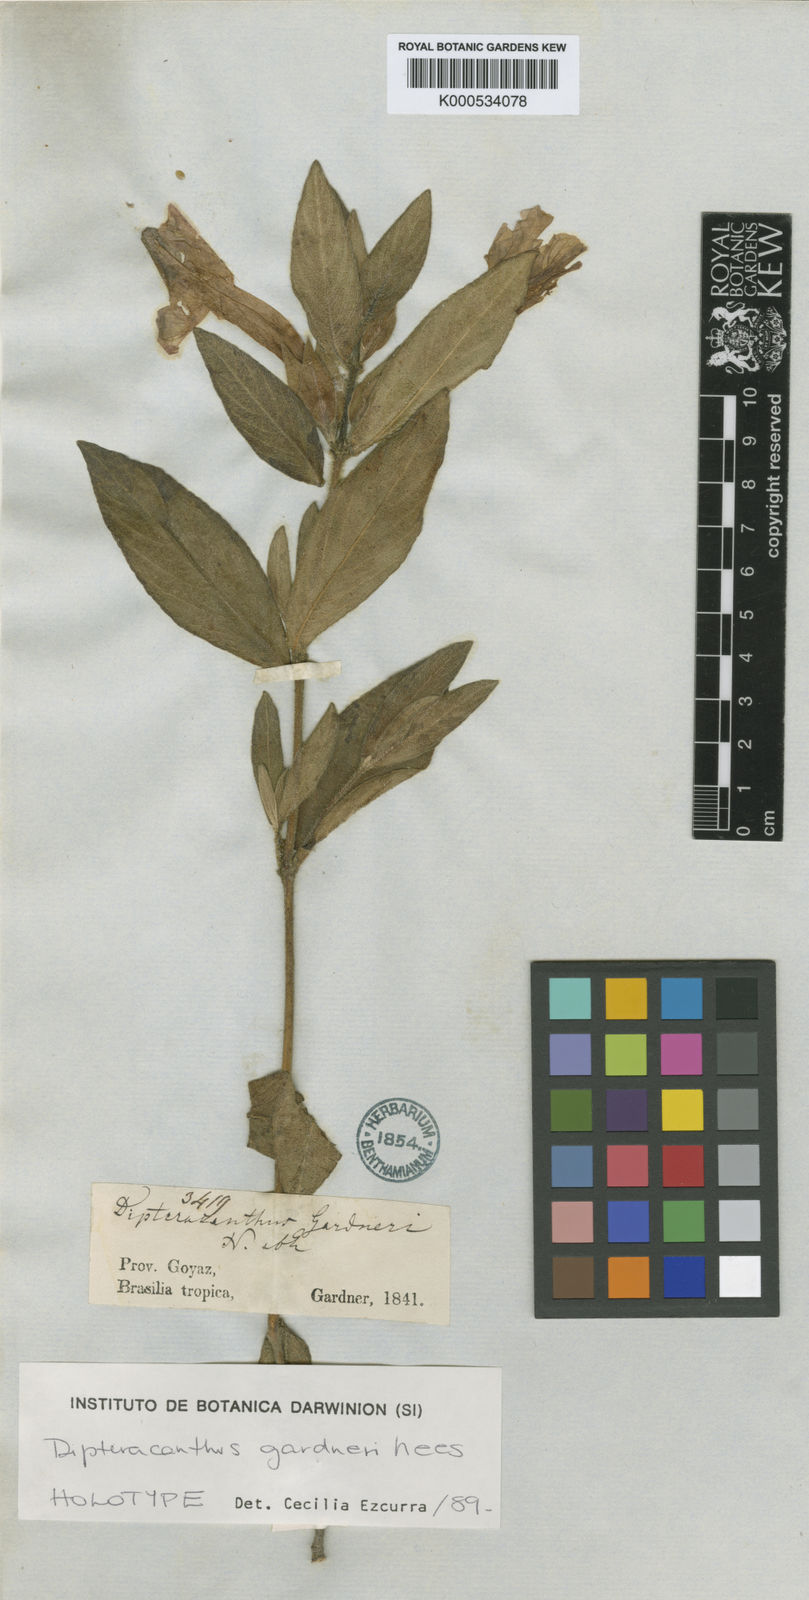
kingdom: Plantae
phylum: Tracheophyta
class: Magnoliopsida
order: Lamiales
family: Acanthaceae
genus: Ruellia
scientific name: Ruellia
